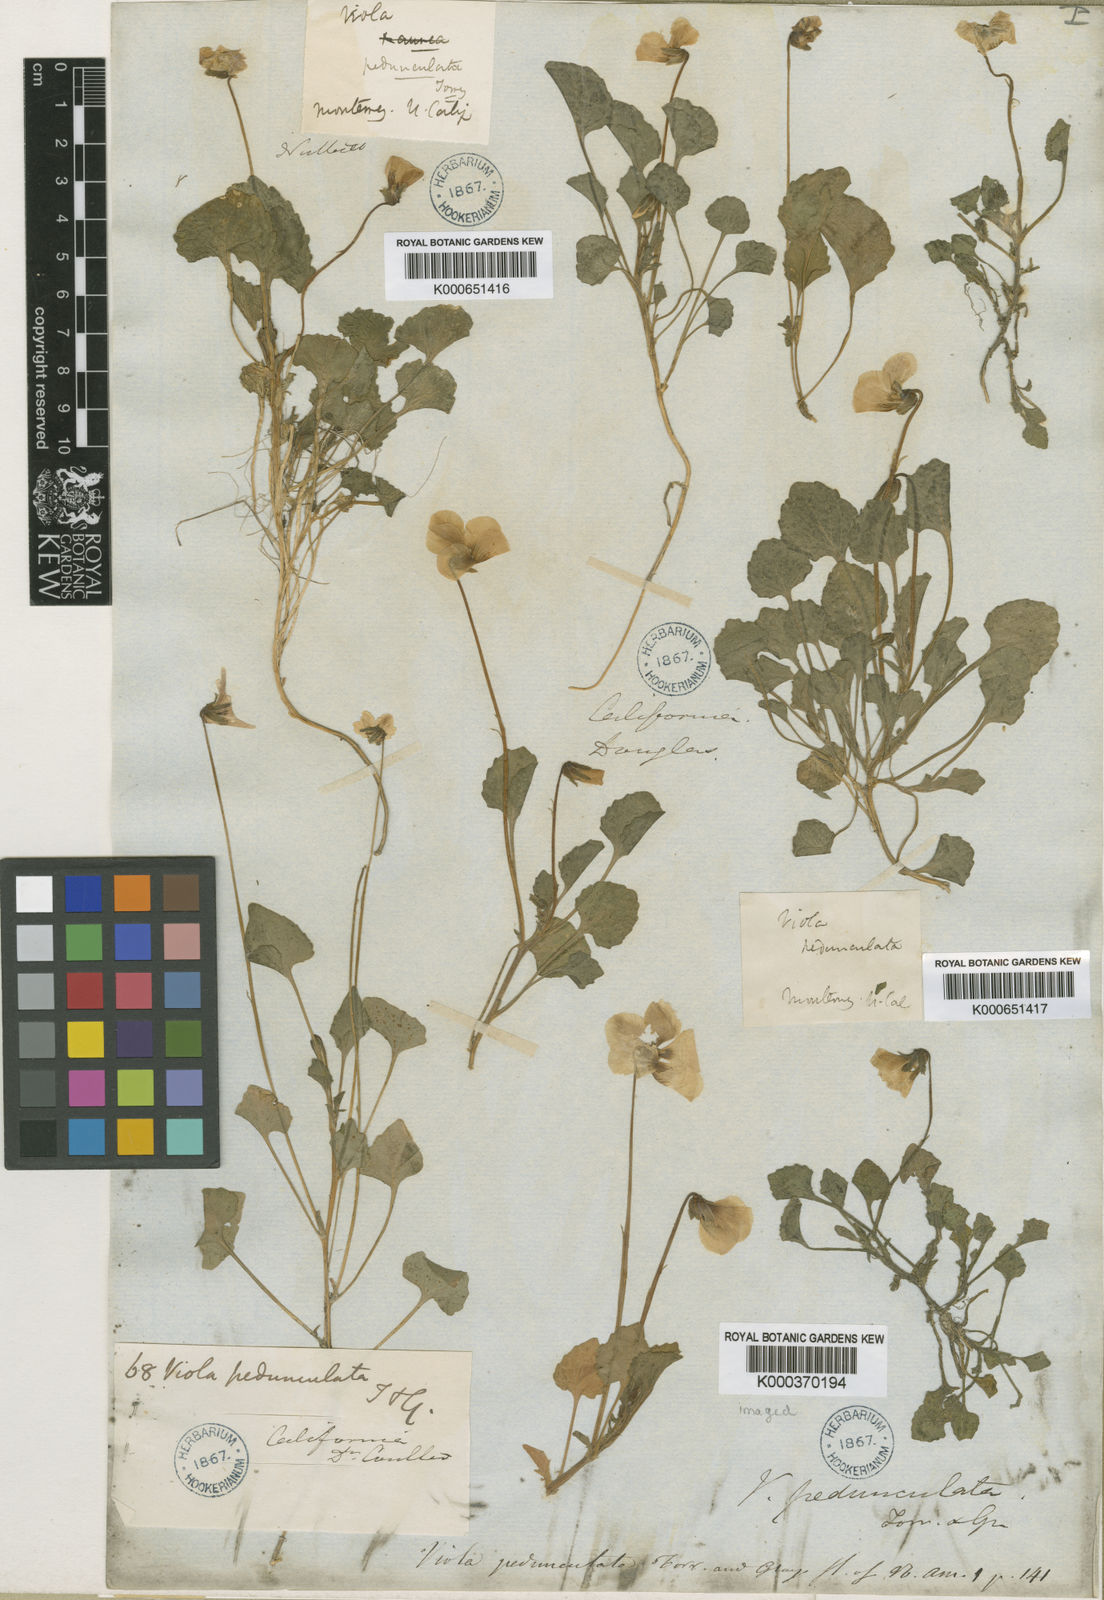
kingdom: Plantae
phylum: Tracheophyta
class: Magnoliopsida
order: Malpighiales
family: Violaceae
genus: Viola
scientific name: Viola pedunculata
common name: California golden violet
